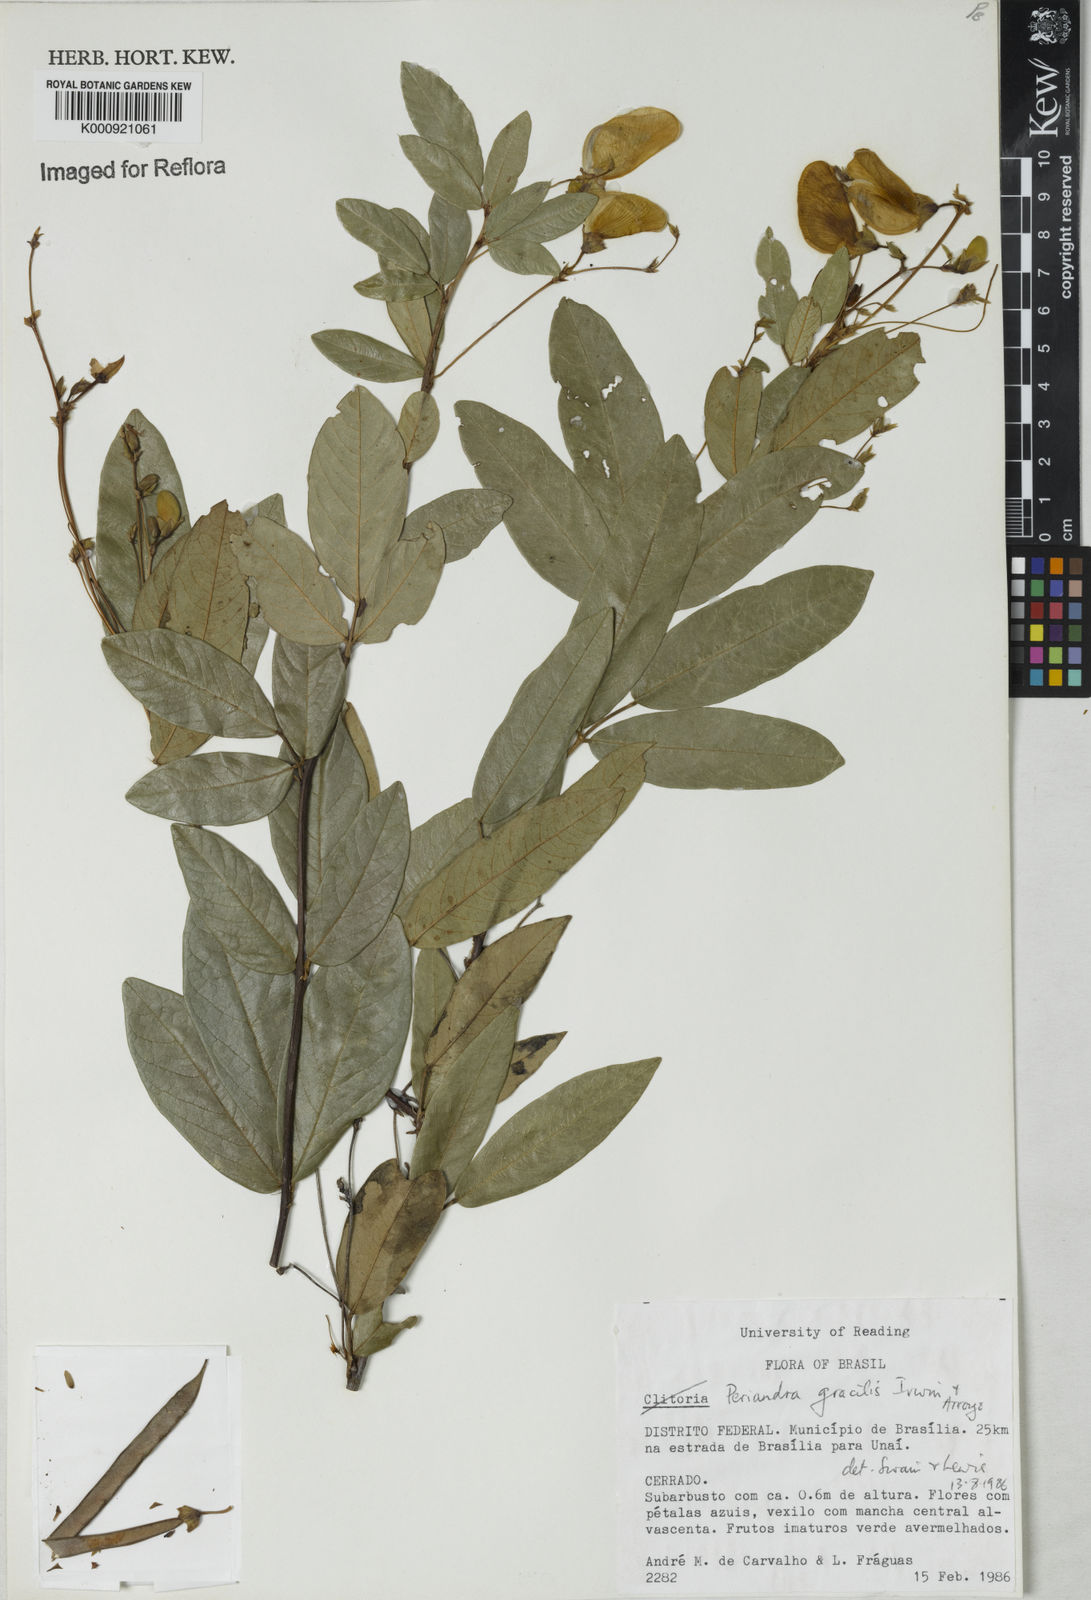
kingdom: Plantae
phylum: Tracheophyta
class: Magnoliopsida
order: Fabales
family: Fabaceae
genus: Periandra
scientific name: Periandra gracilis
